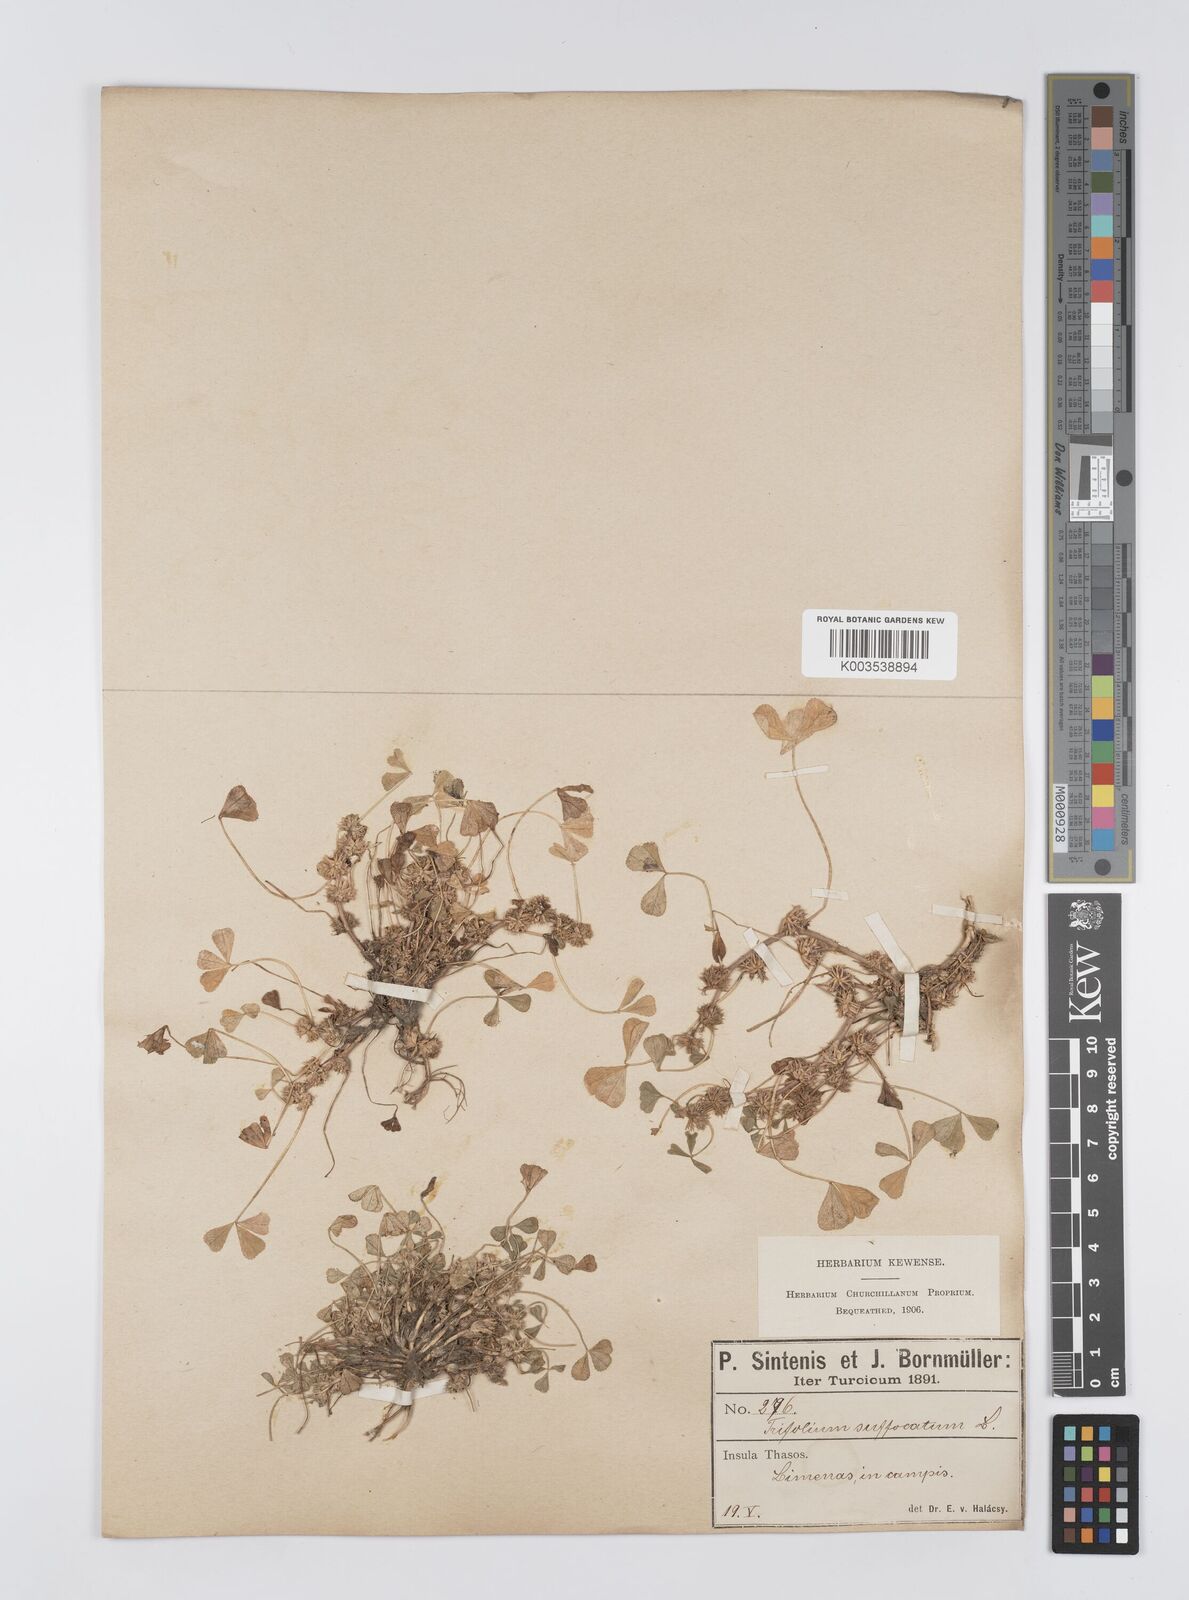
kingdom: Plantae
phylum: Tracheophyta
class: Magnoliopsida
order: Fabales
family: Fabaceae
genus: Trifolium
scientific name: Trifolium suffocatum
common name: Suffocated clover
